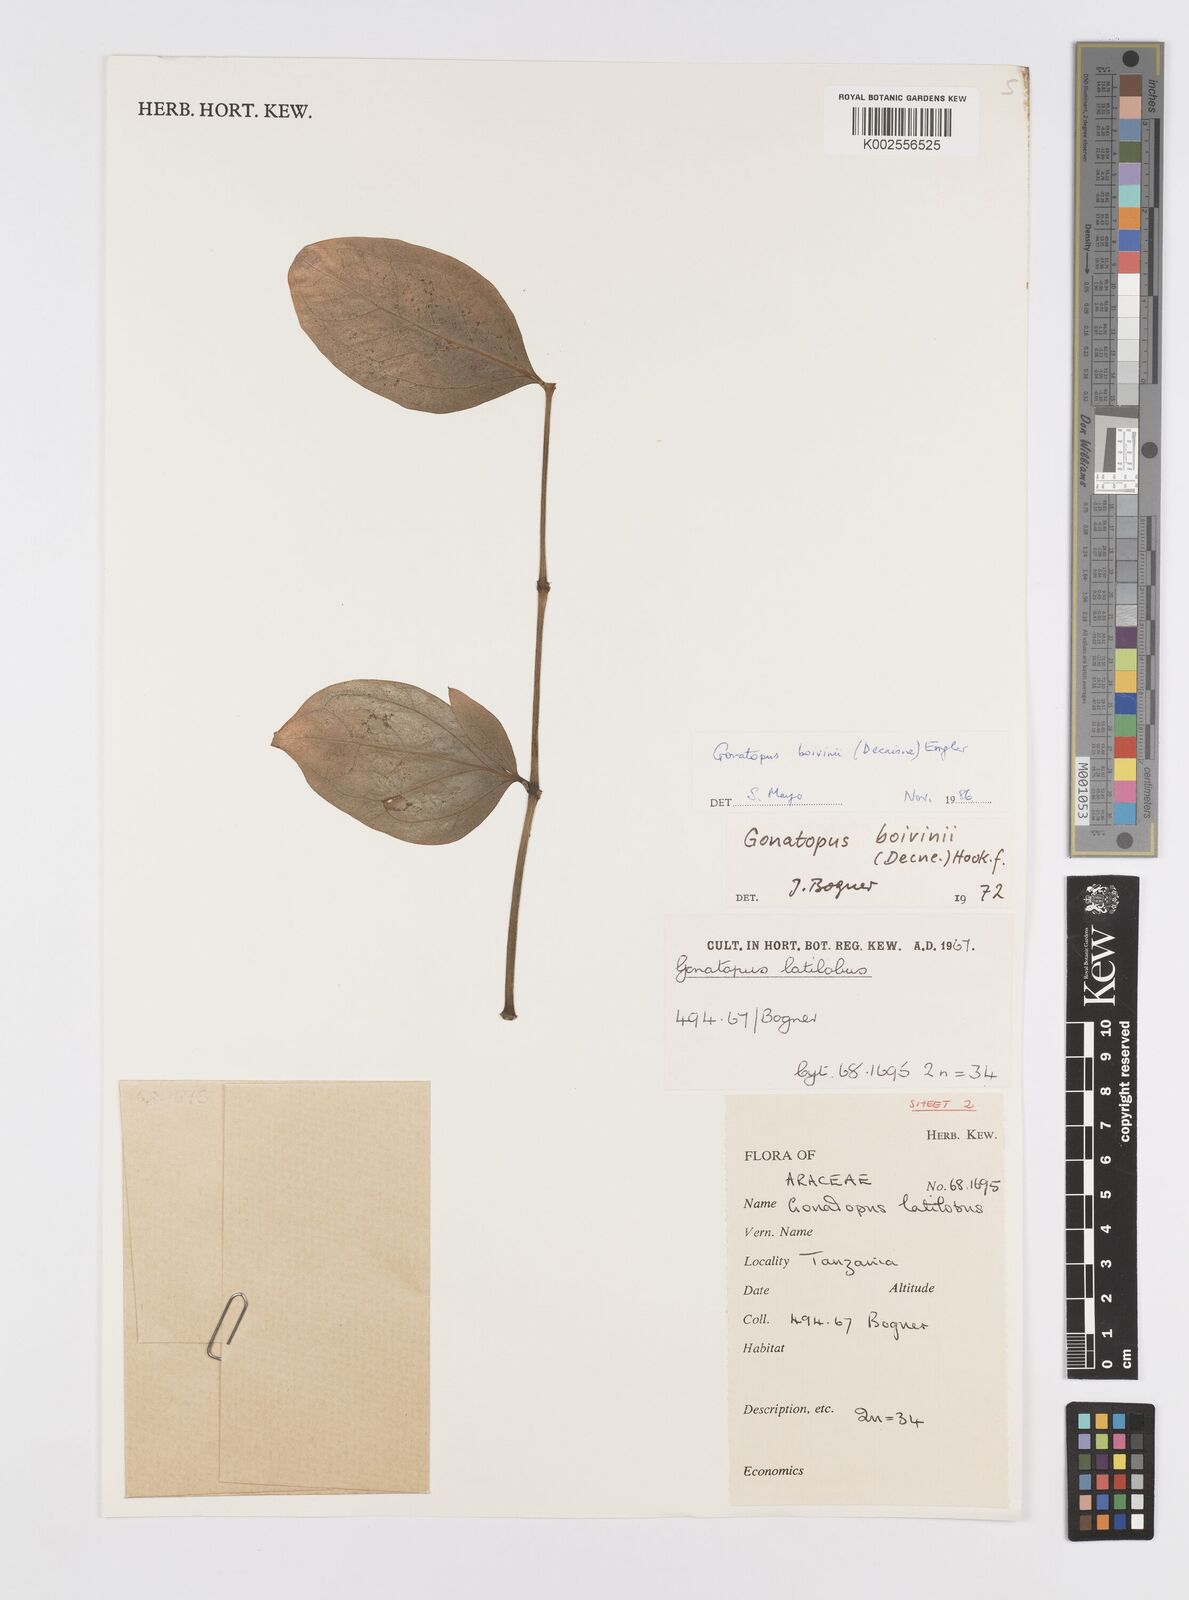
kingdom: Plantae
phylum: Tracheophyta
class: Liliopsida
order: Alismatales
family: Araceae
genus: Gonatopus
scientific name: Gonatopus boivinii
